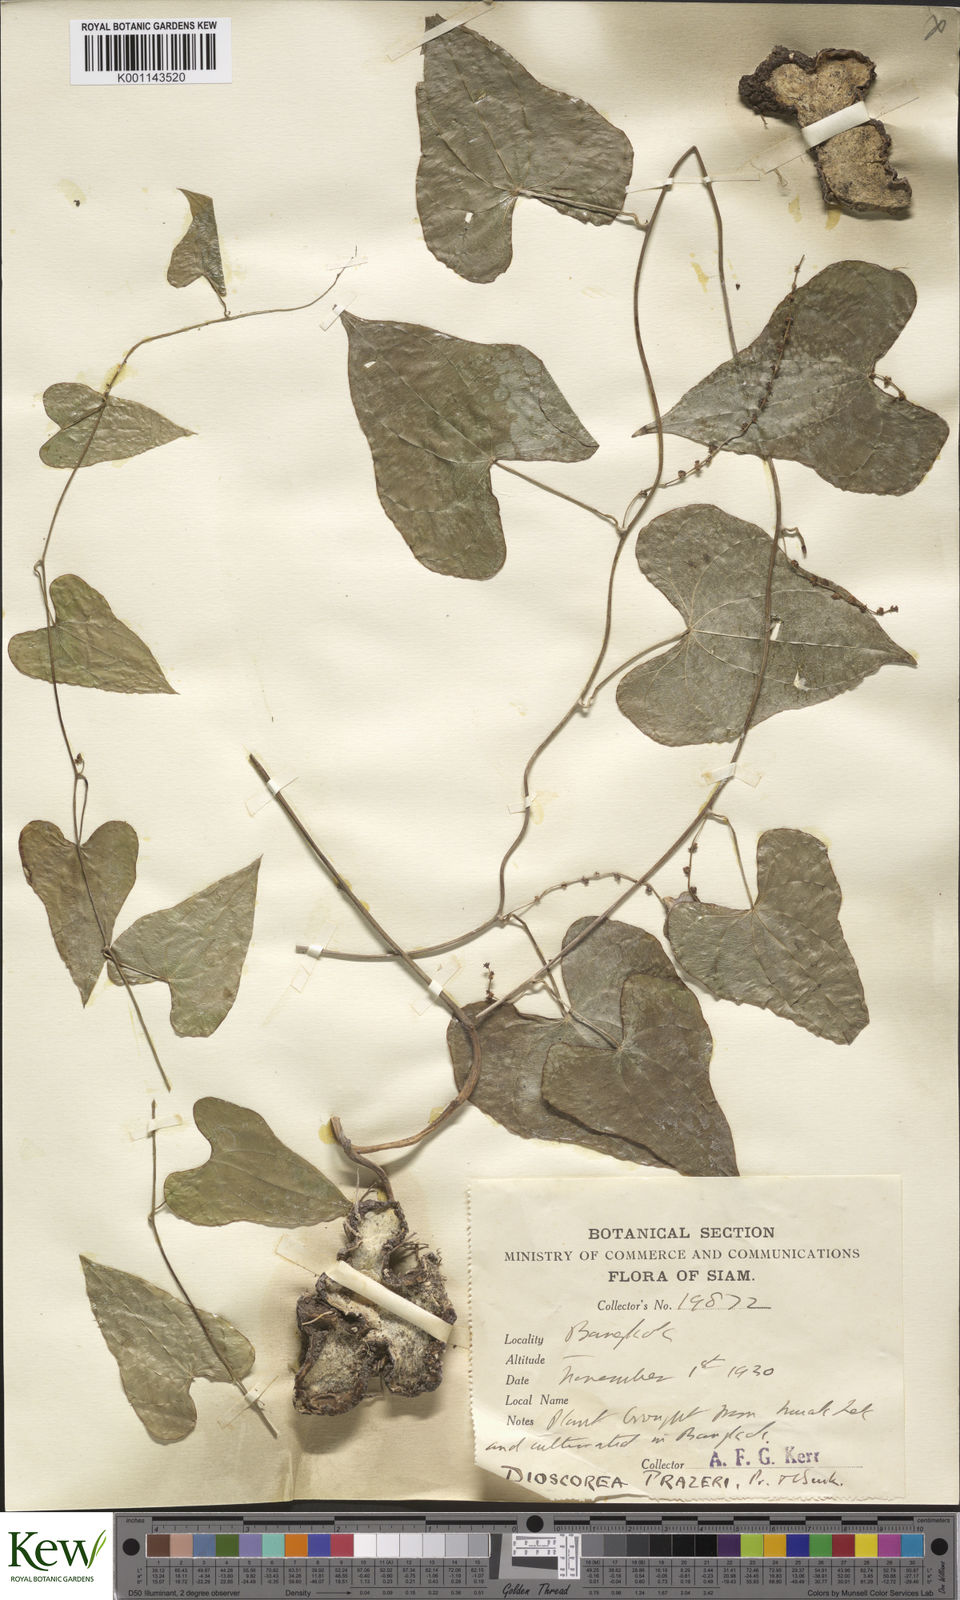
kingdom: Plantae
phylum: Tracheophyta
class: Liliopsida
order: Dioscoreales
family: Dioscoreaceae
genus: Dioscorea
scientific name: Dioscorea prazeri
